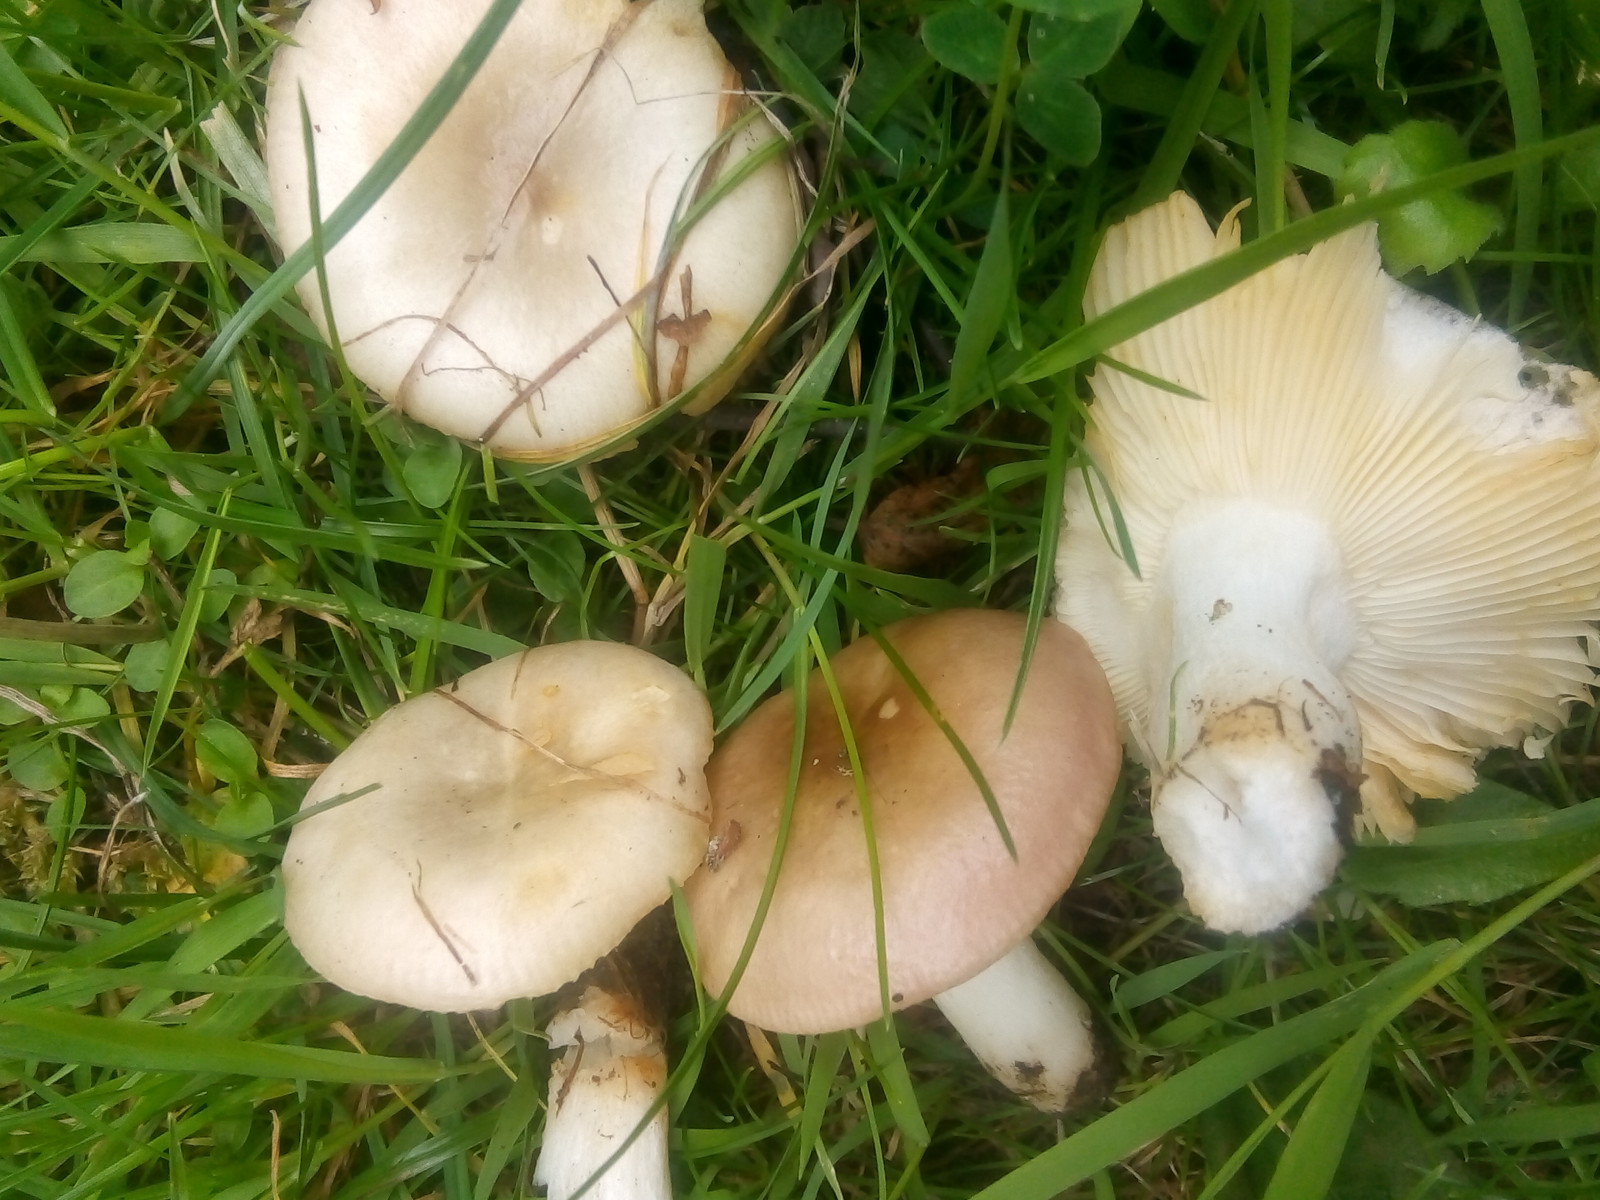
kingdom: Fungi
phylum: Basidiomycota
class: Agaricomycetes
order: Russulales
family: Russulaceae
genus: Russula
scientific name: Russula versicolor
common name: foranderlig skørhat
